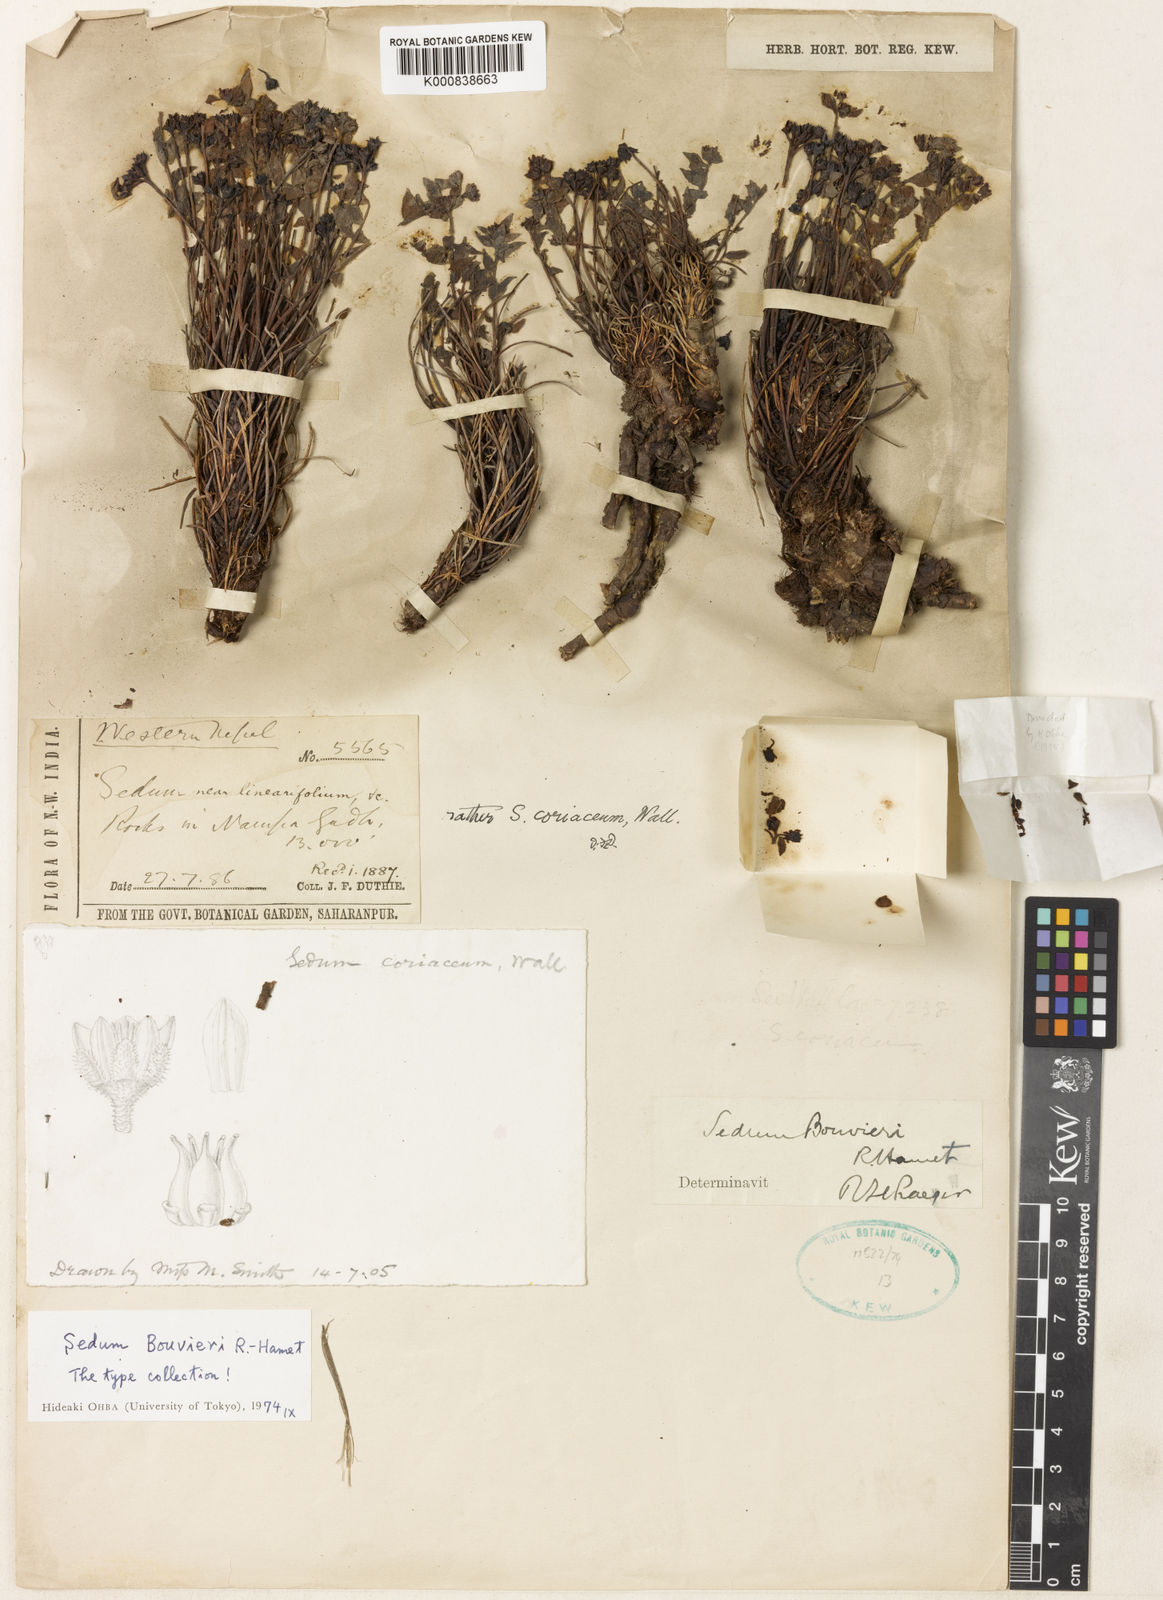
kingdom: Plantae
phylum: Tracheophyta
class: Magnoliopsida
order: Saxifragales
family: Crassulaceae
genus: Rhodiola
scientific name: Rhodiola himalensis
